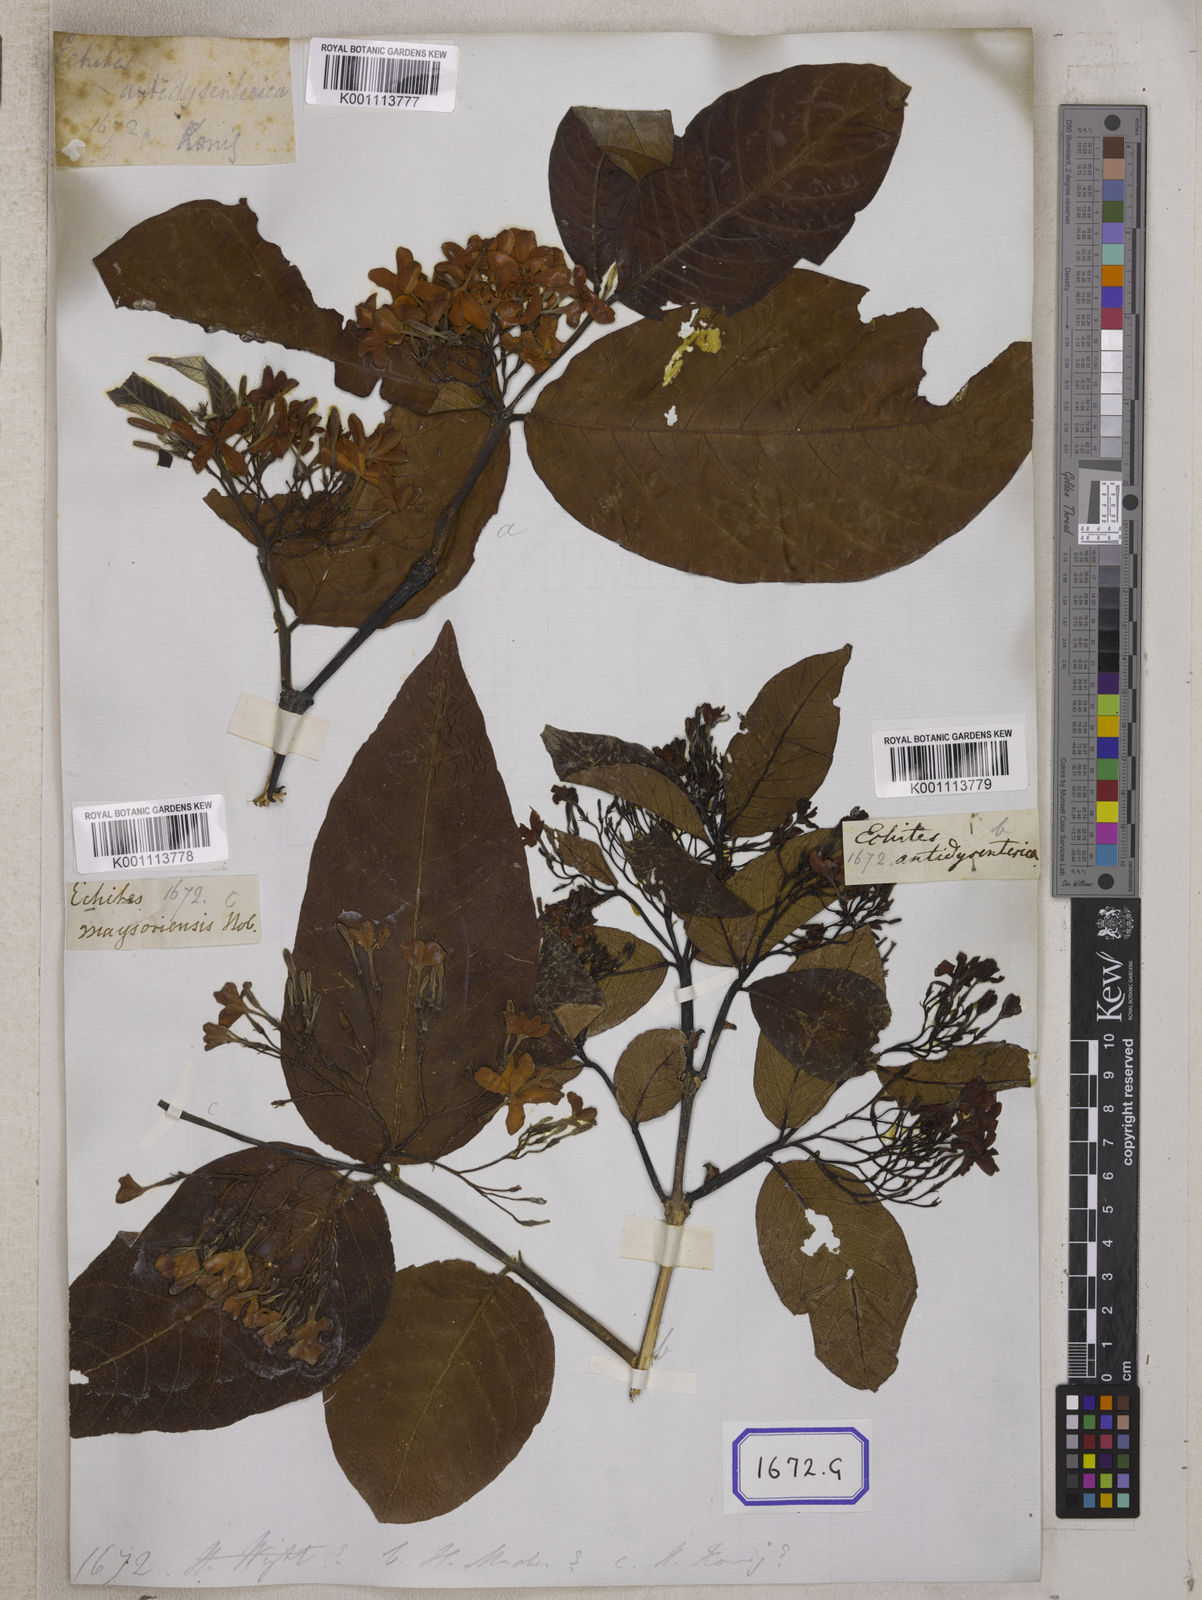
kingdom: Plantae
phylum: Tracheophyta
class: Magnoliopsida
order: Gentianales
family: Apocynaceae
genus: Holarrhena
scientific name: Holarrhena pubescens
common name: Bitter oleander
